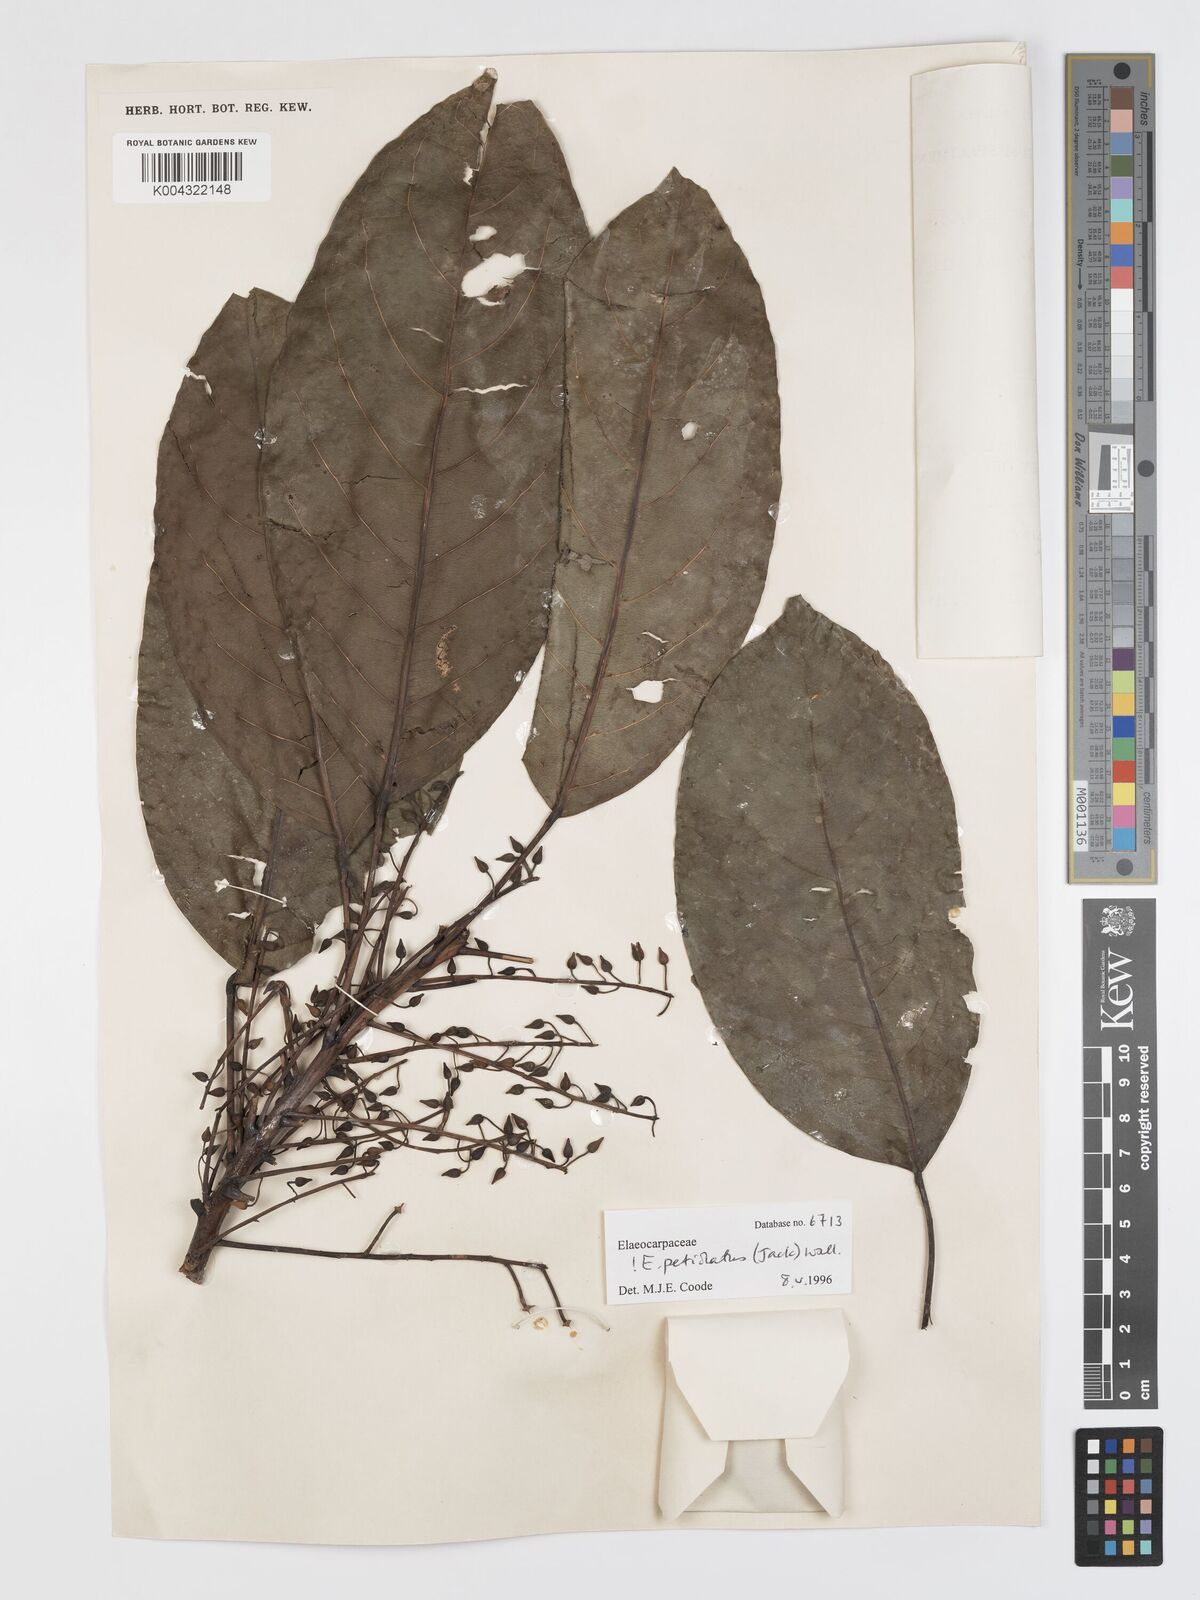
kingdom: Plantae
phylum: Tracheophyta
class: Magnoliopsida
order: Oxalidales
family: Elaeocarpaceae
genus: Elaeocarpus
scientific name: Elaeocarpus
